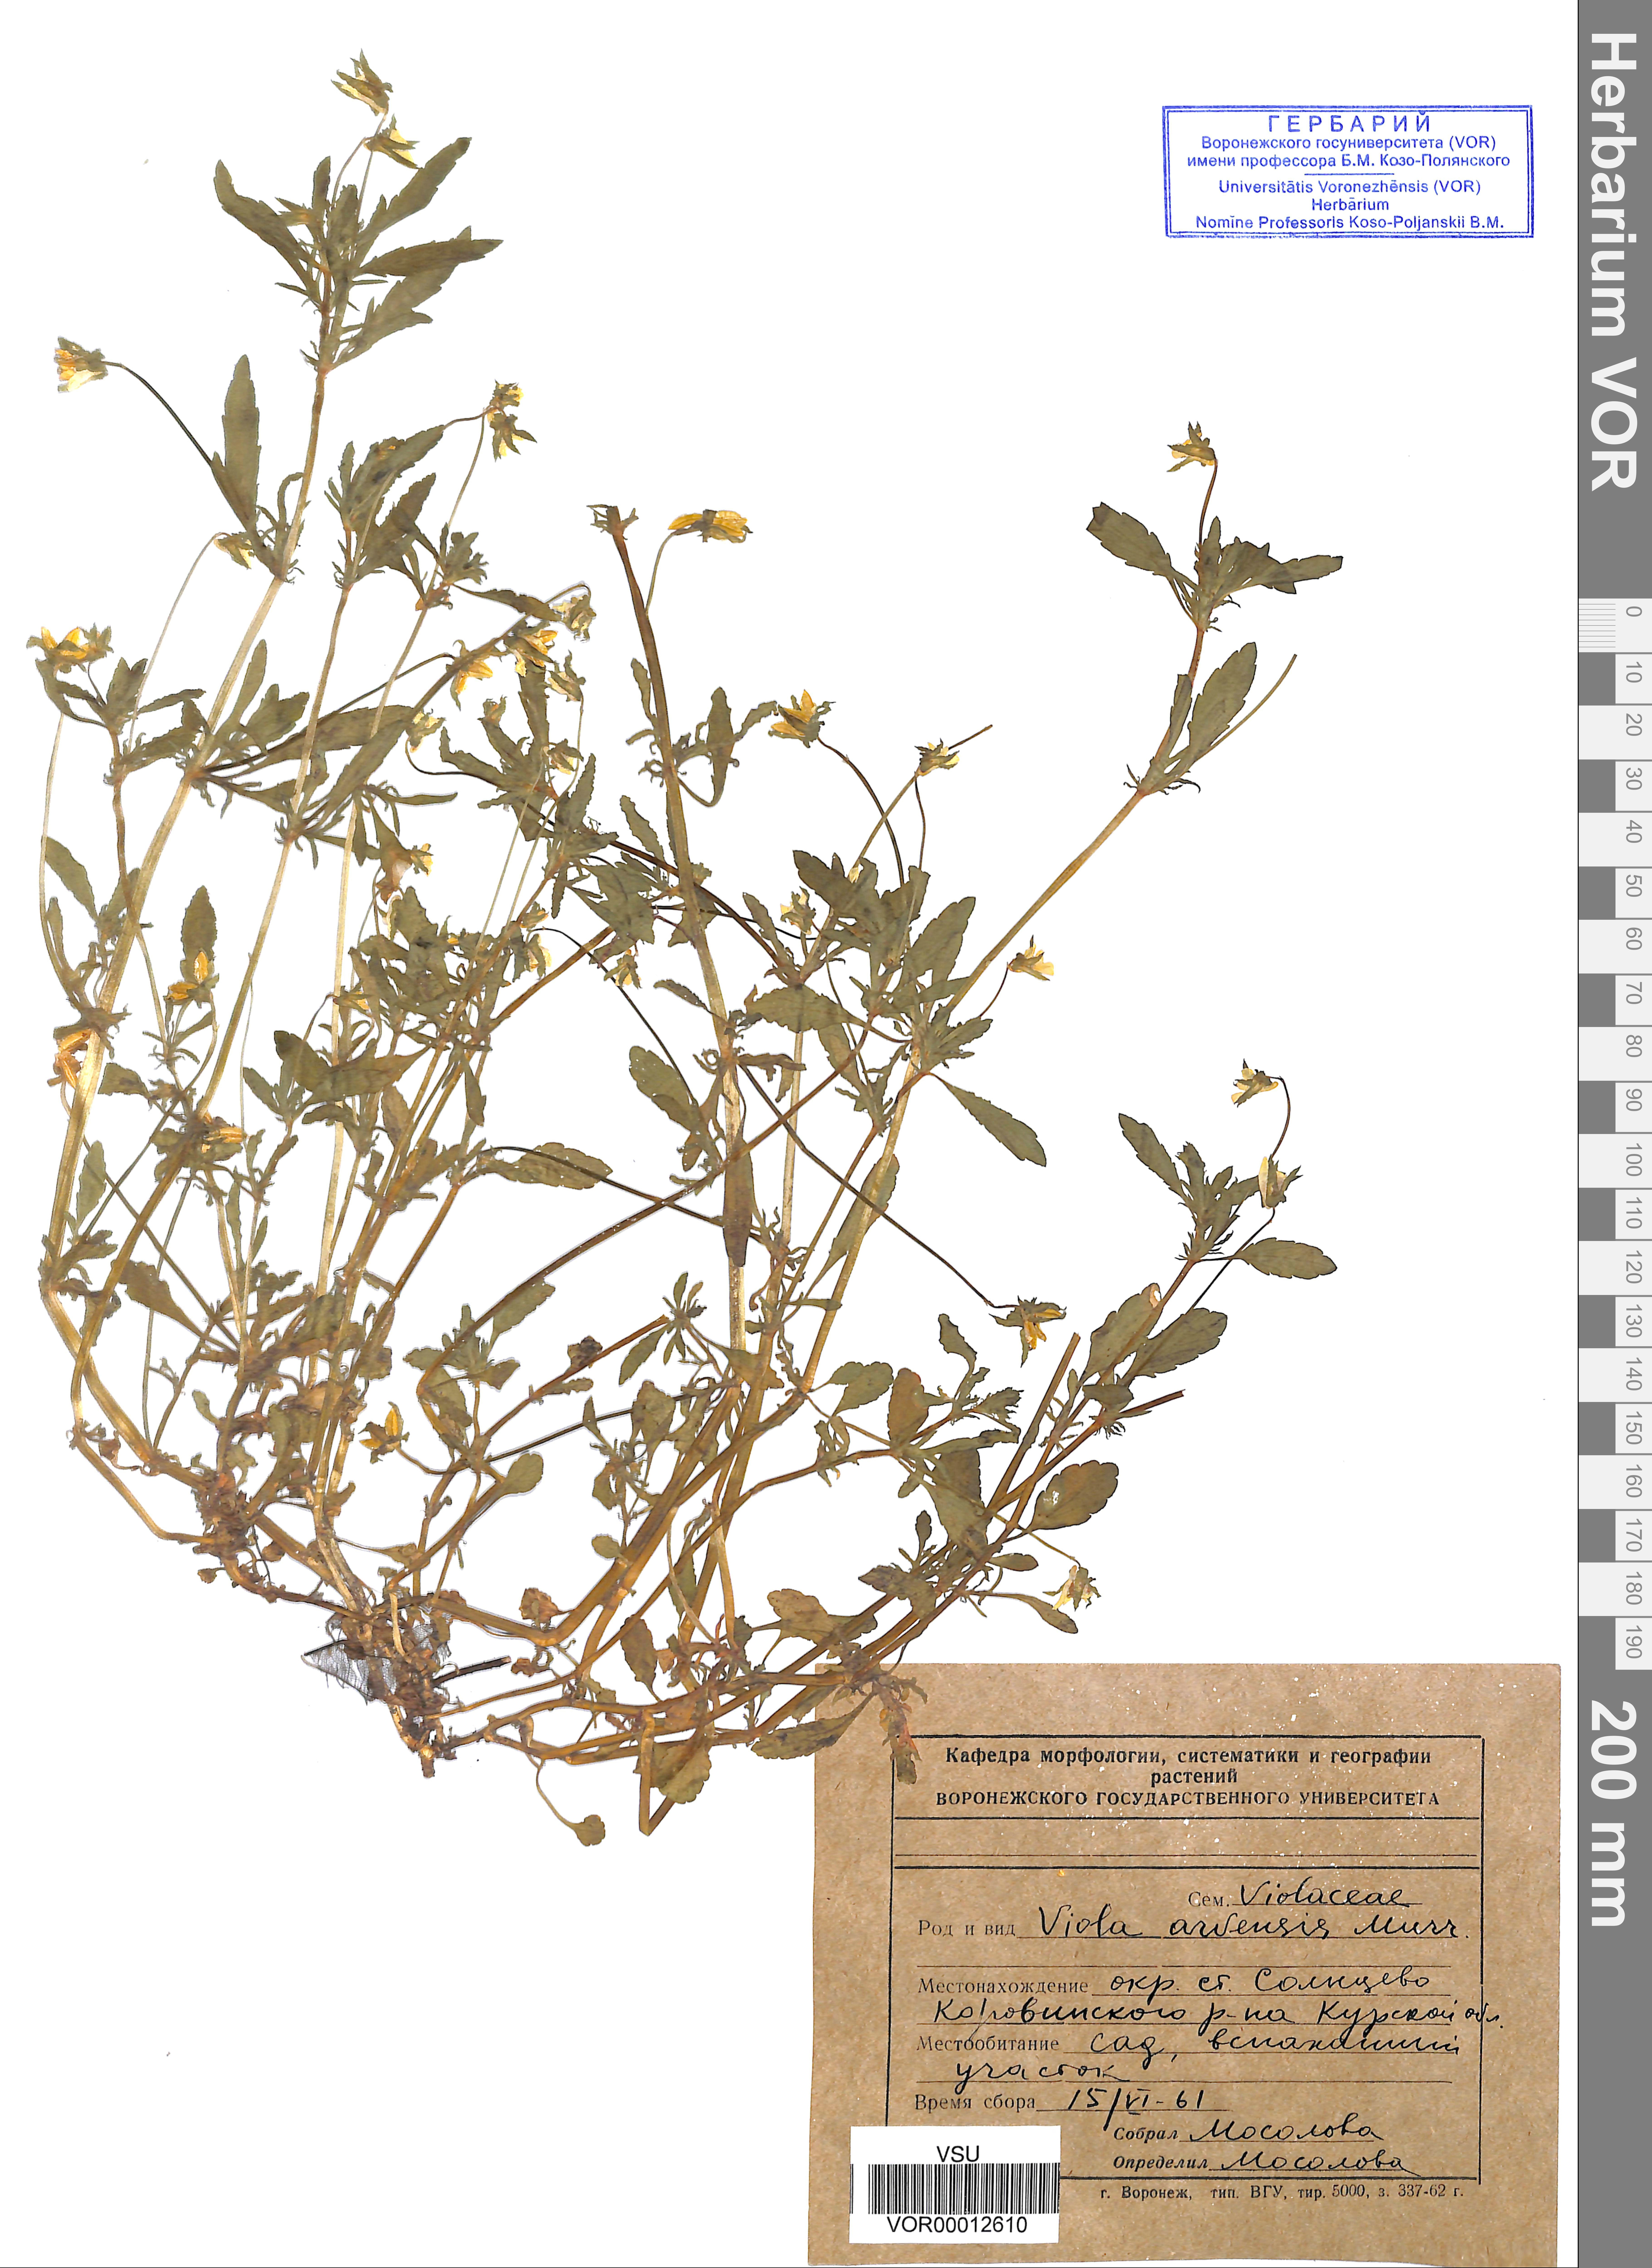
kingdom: Plantae
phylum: Tracheophyta
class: Magnoliopsida
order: Malpighiales
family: Violaceae
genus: Viola
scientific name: Viola arvensis
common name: Field pansy
